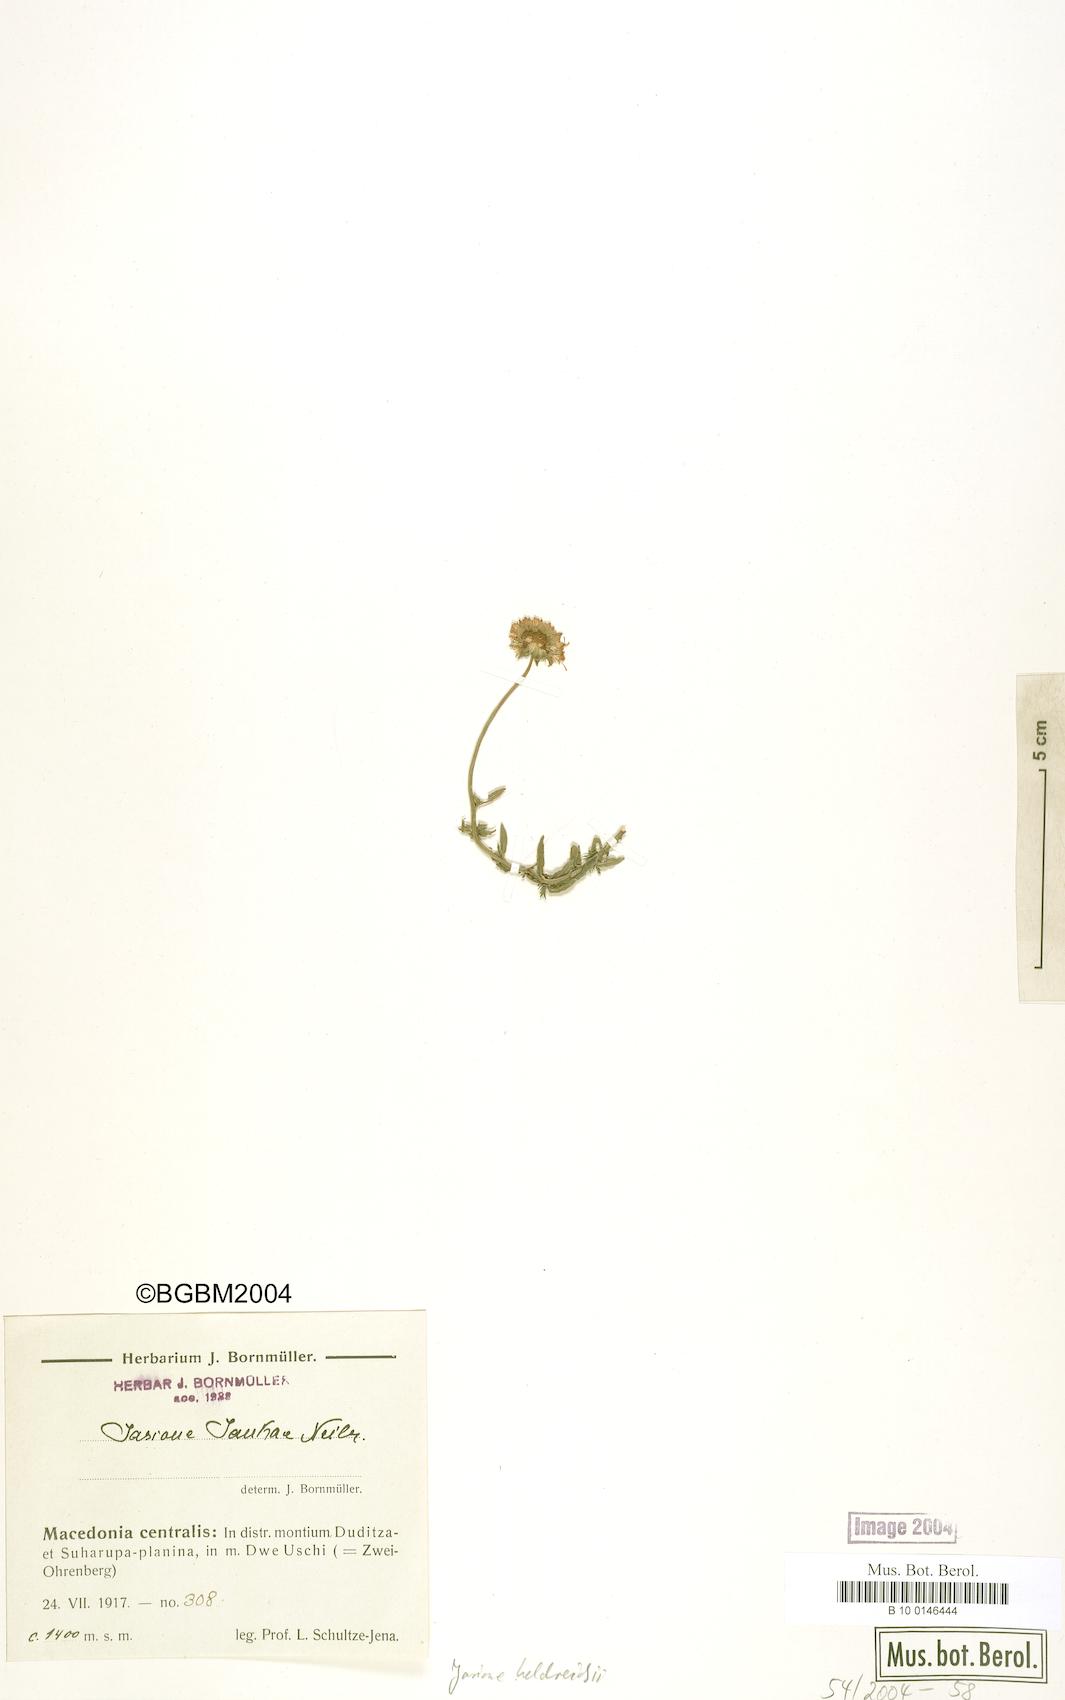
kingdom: Plantae
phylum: Tracheophyta
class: Magnoliopsida
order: Asterales
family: Campanulaceae
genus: Jasione
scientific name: Jasione heldreichii
